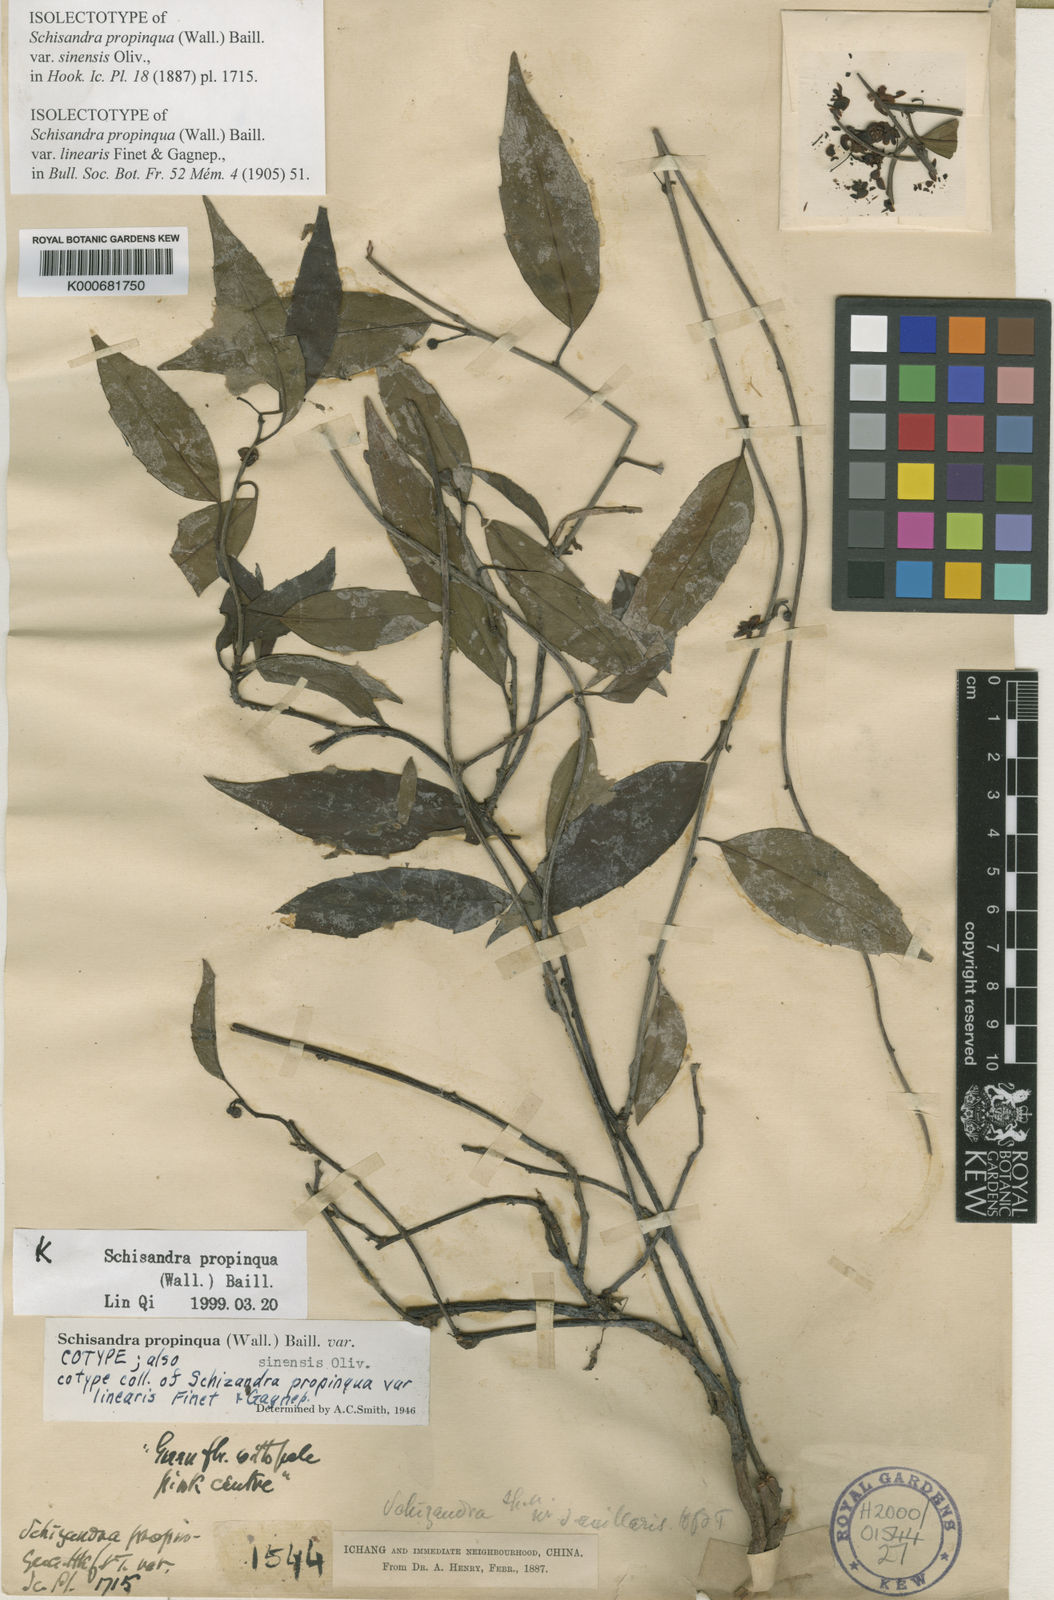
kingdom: Plantae
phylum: Tracheophyta
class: Magnoliopsida
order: Austrobaileyales
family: Schisandraceae
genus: Schisandra
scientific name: Schisandra propinqua
